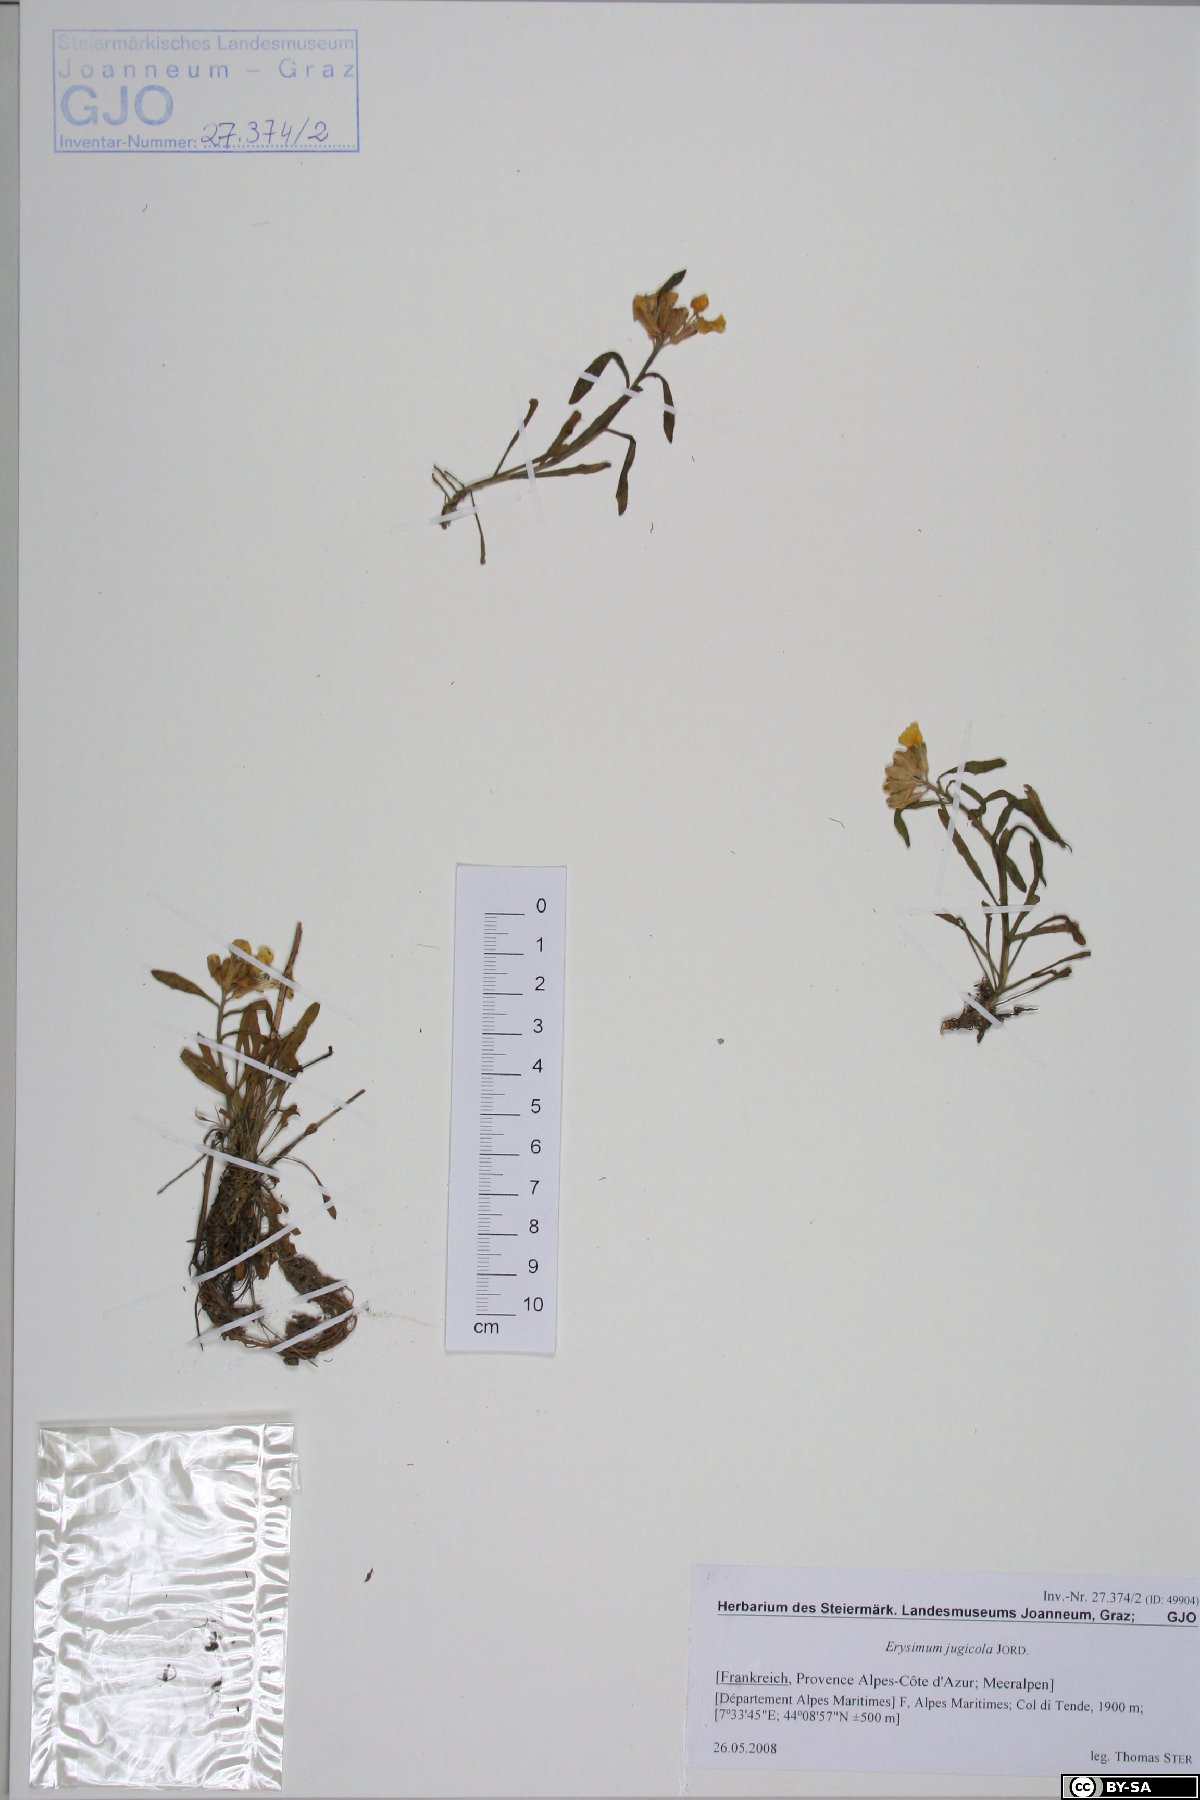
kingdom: Plantae
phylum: Tracheophyta
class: Magnoliopsida
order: Brassicales
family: Brassicaceae
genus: Erysimum
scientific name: Erysimum jugicolum
